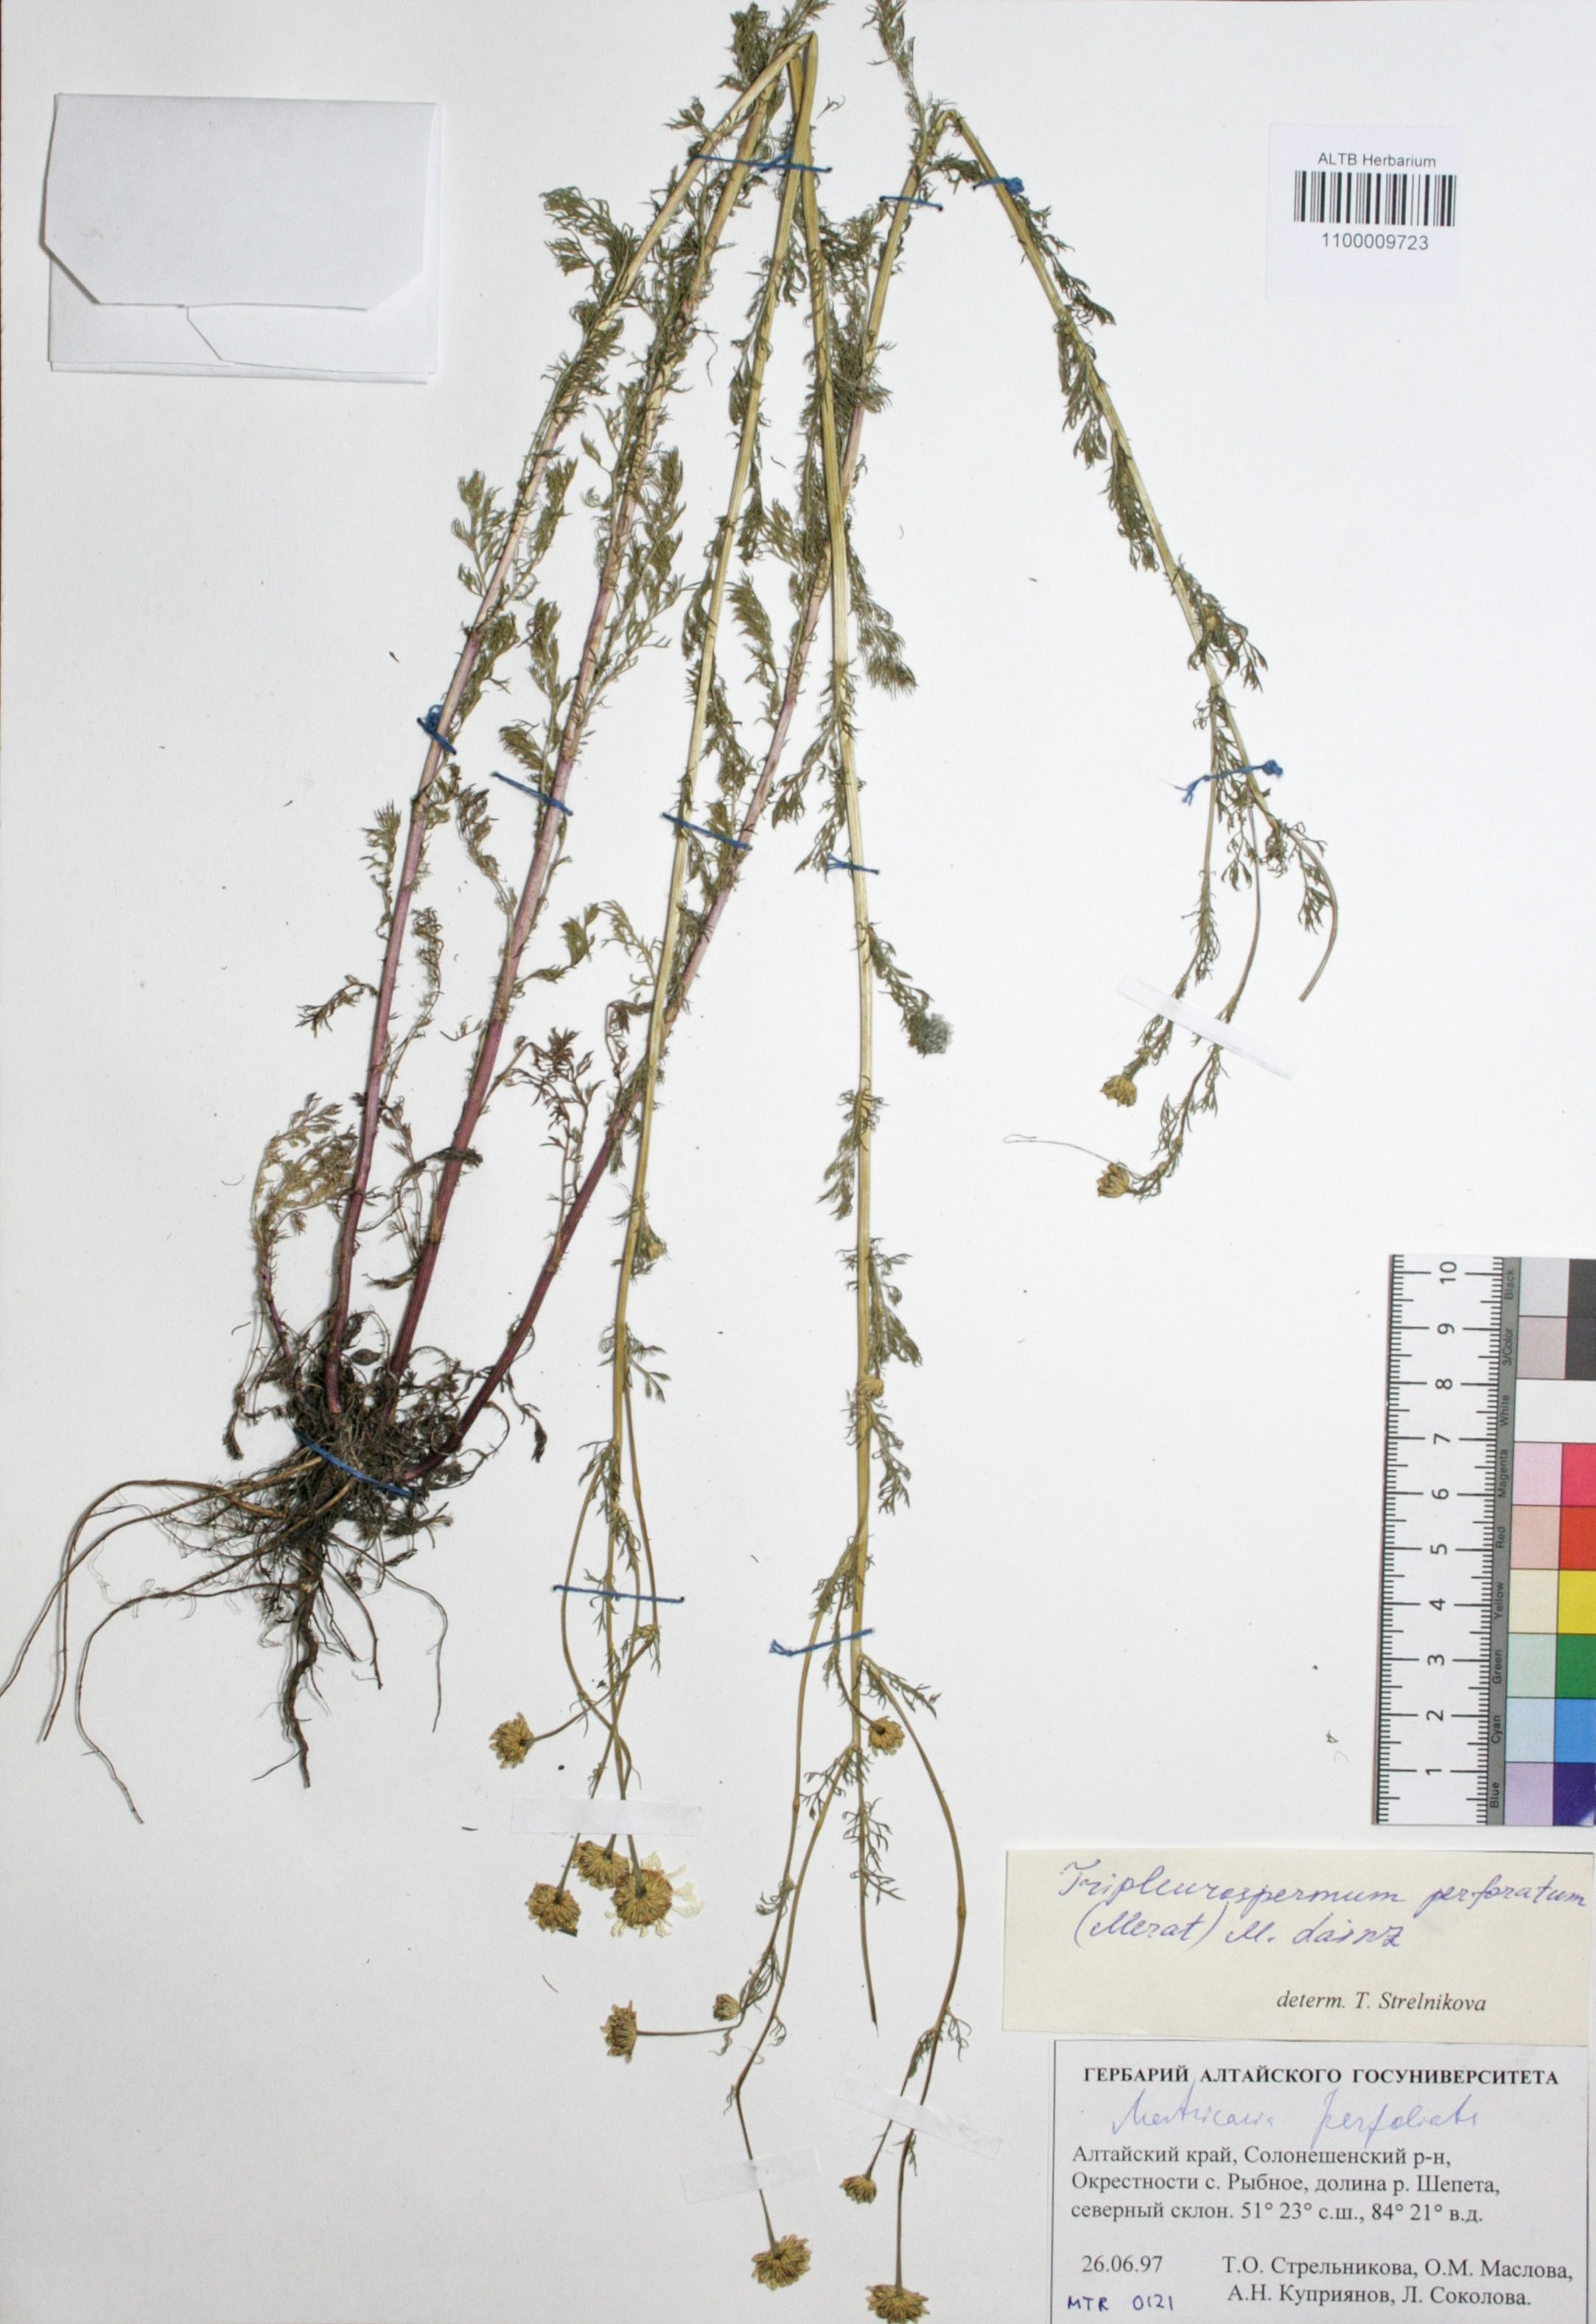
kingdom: Plantae
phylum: Tracheophyta
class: Magnoliopsida
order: Asterales
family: Asteraceae
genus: Tripleurospermum
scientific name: Tripleurospermum inodorum
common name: Scentless mayweed
